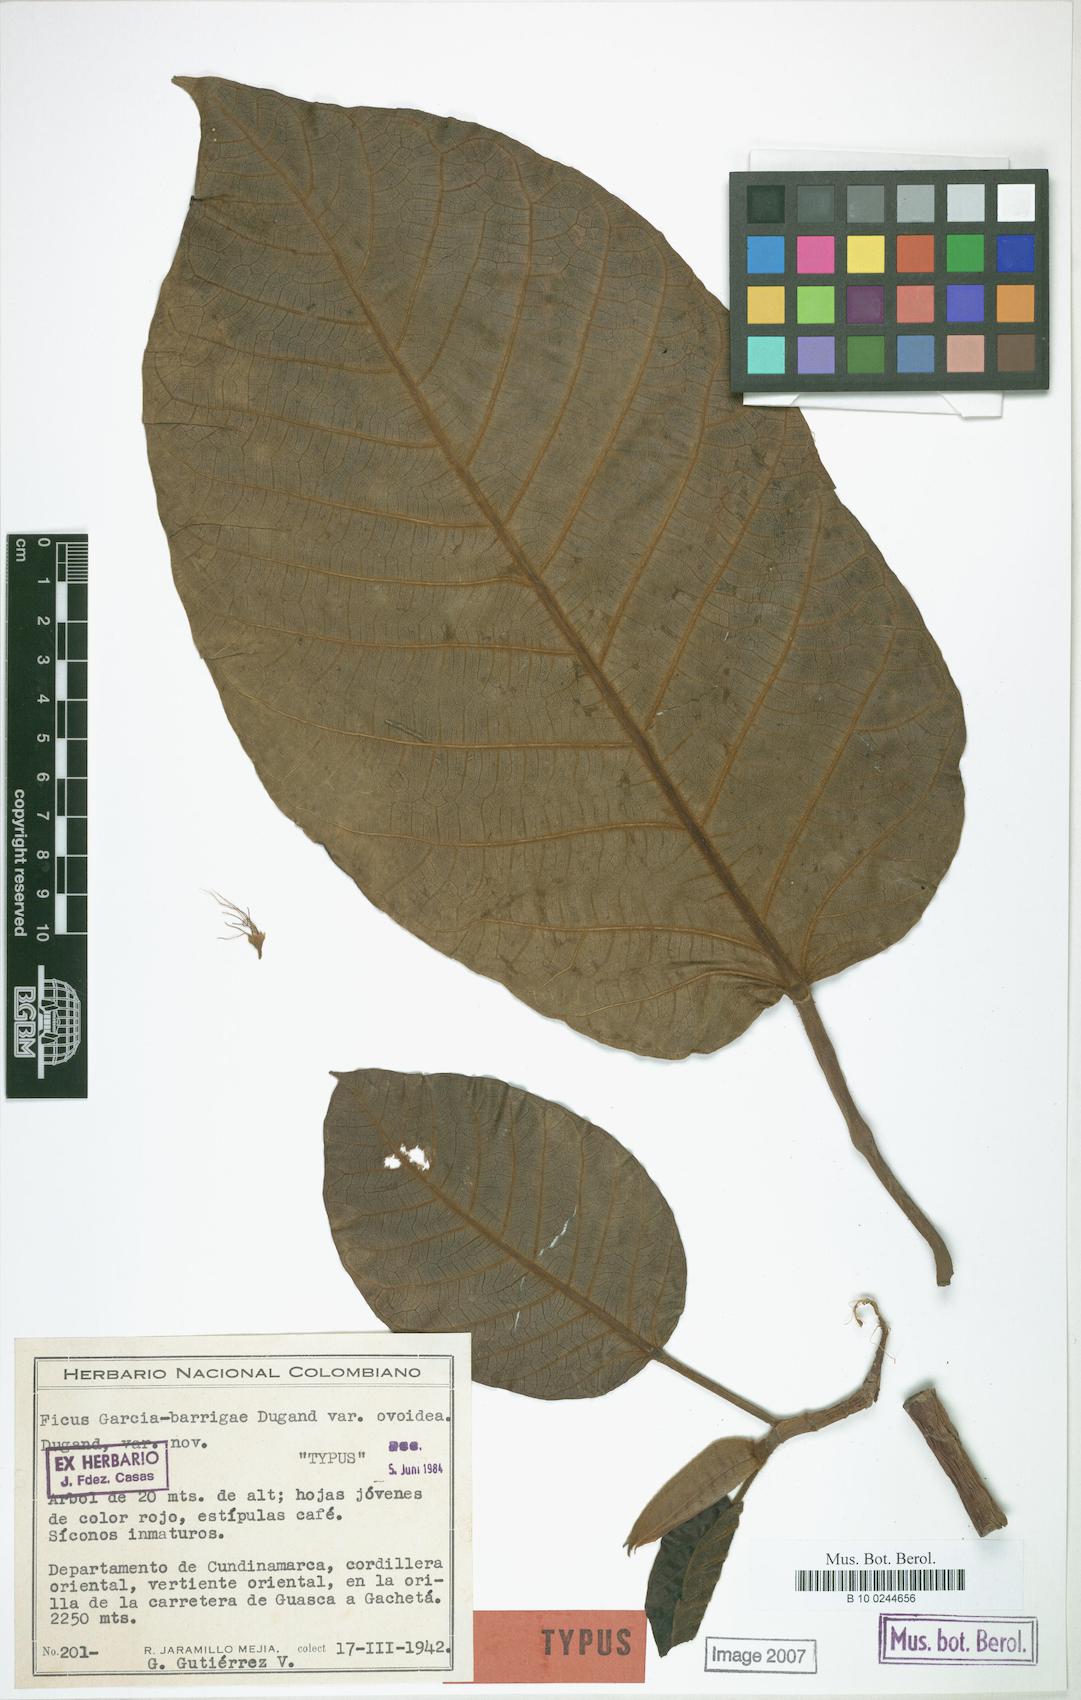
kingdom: Plantae
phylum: Tracheophyta
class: Magnoliopsida
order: Rosales
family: Moraceae
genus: Ficus
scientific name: Ficus cuatrecasana
